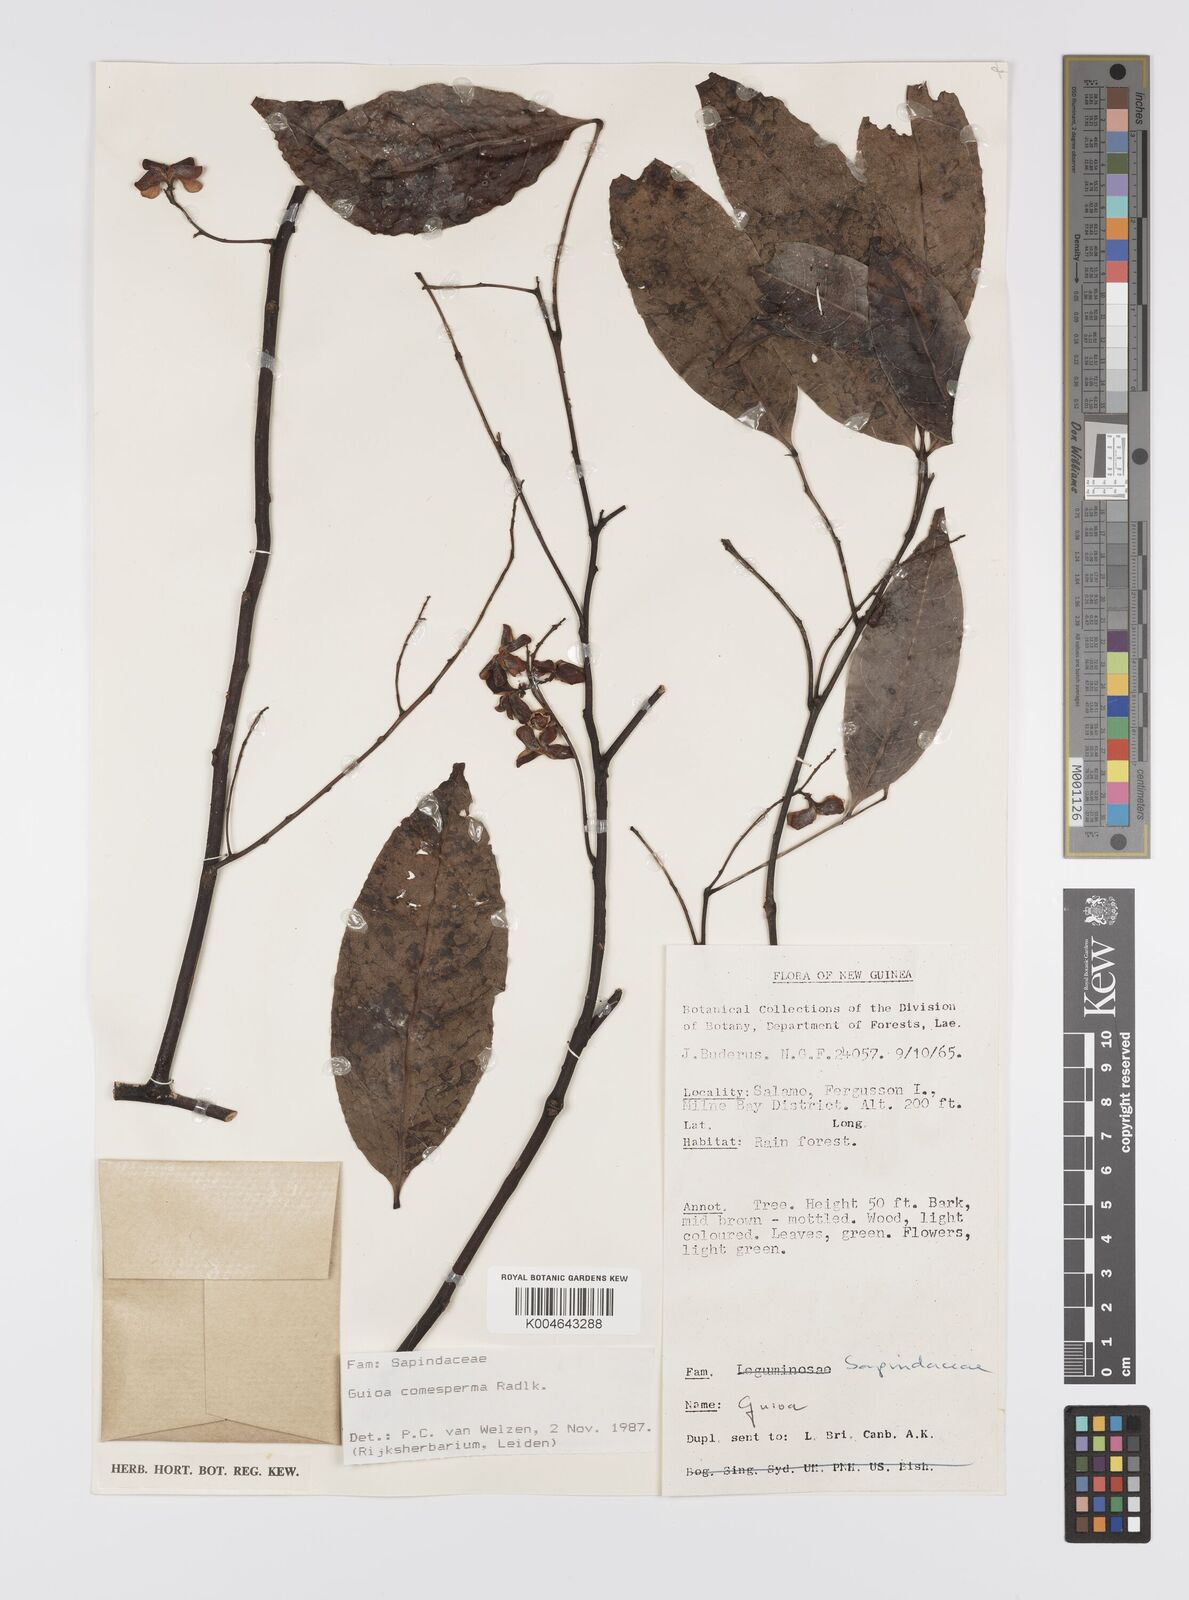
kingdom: Plantae
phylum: Tracheophyta
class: Magnoliopsida
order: Sapindales
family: Sapindaceae
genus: Guioa
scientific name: Guioa comesperma
